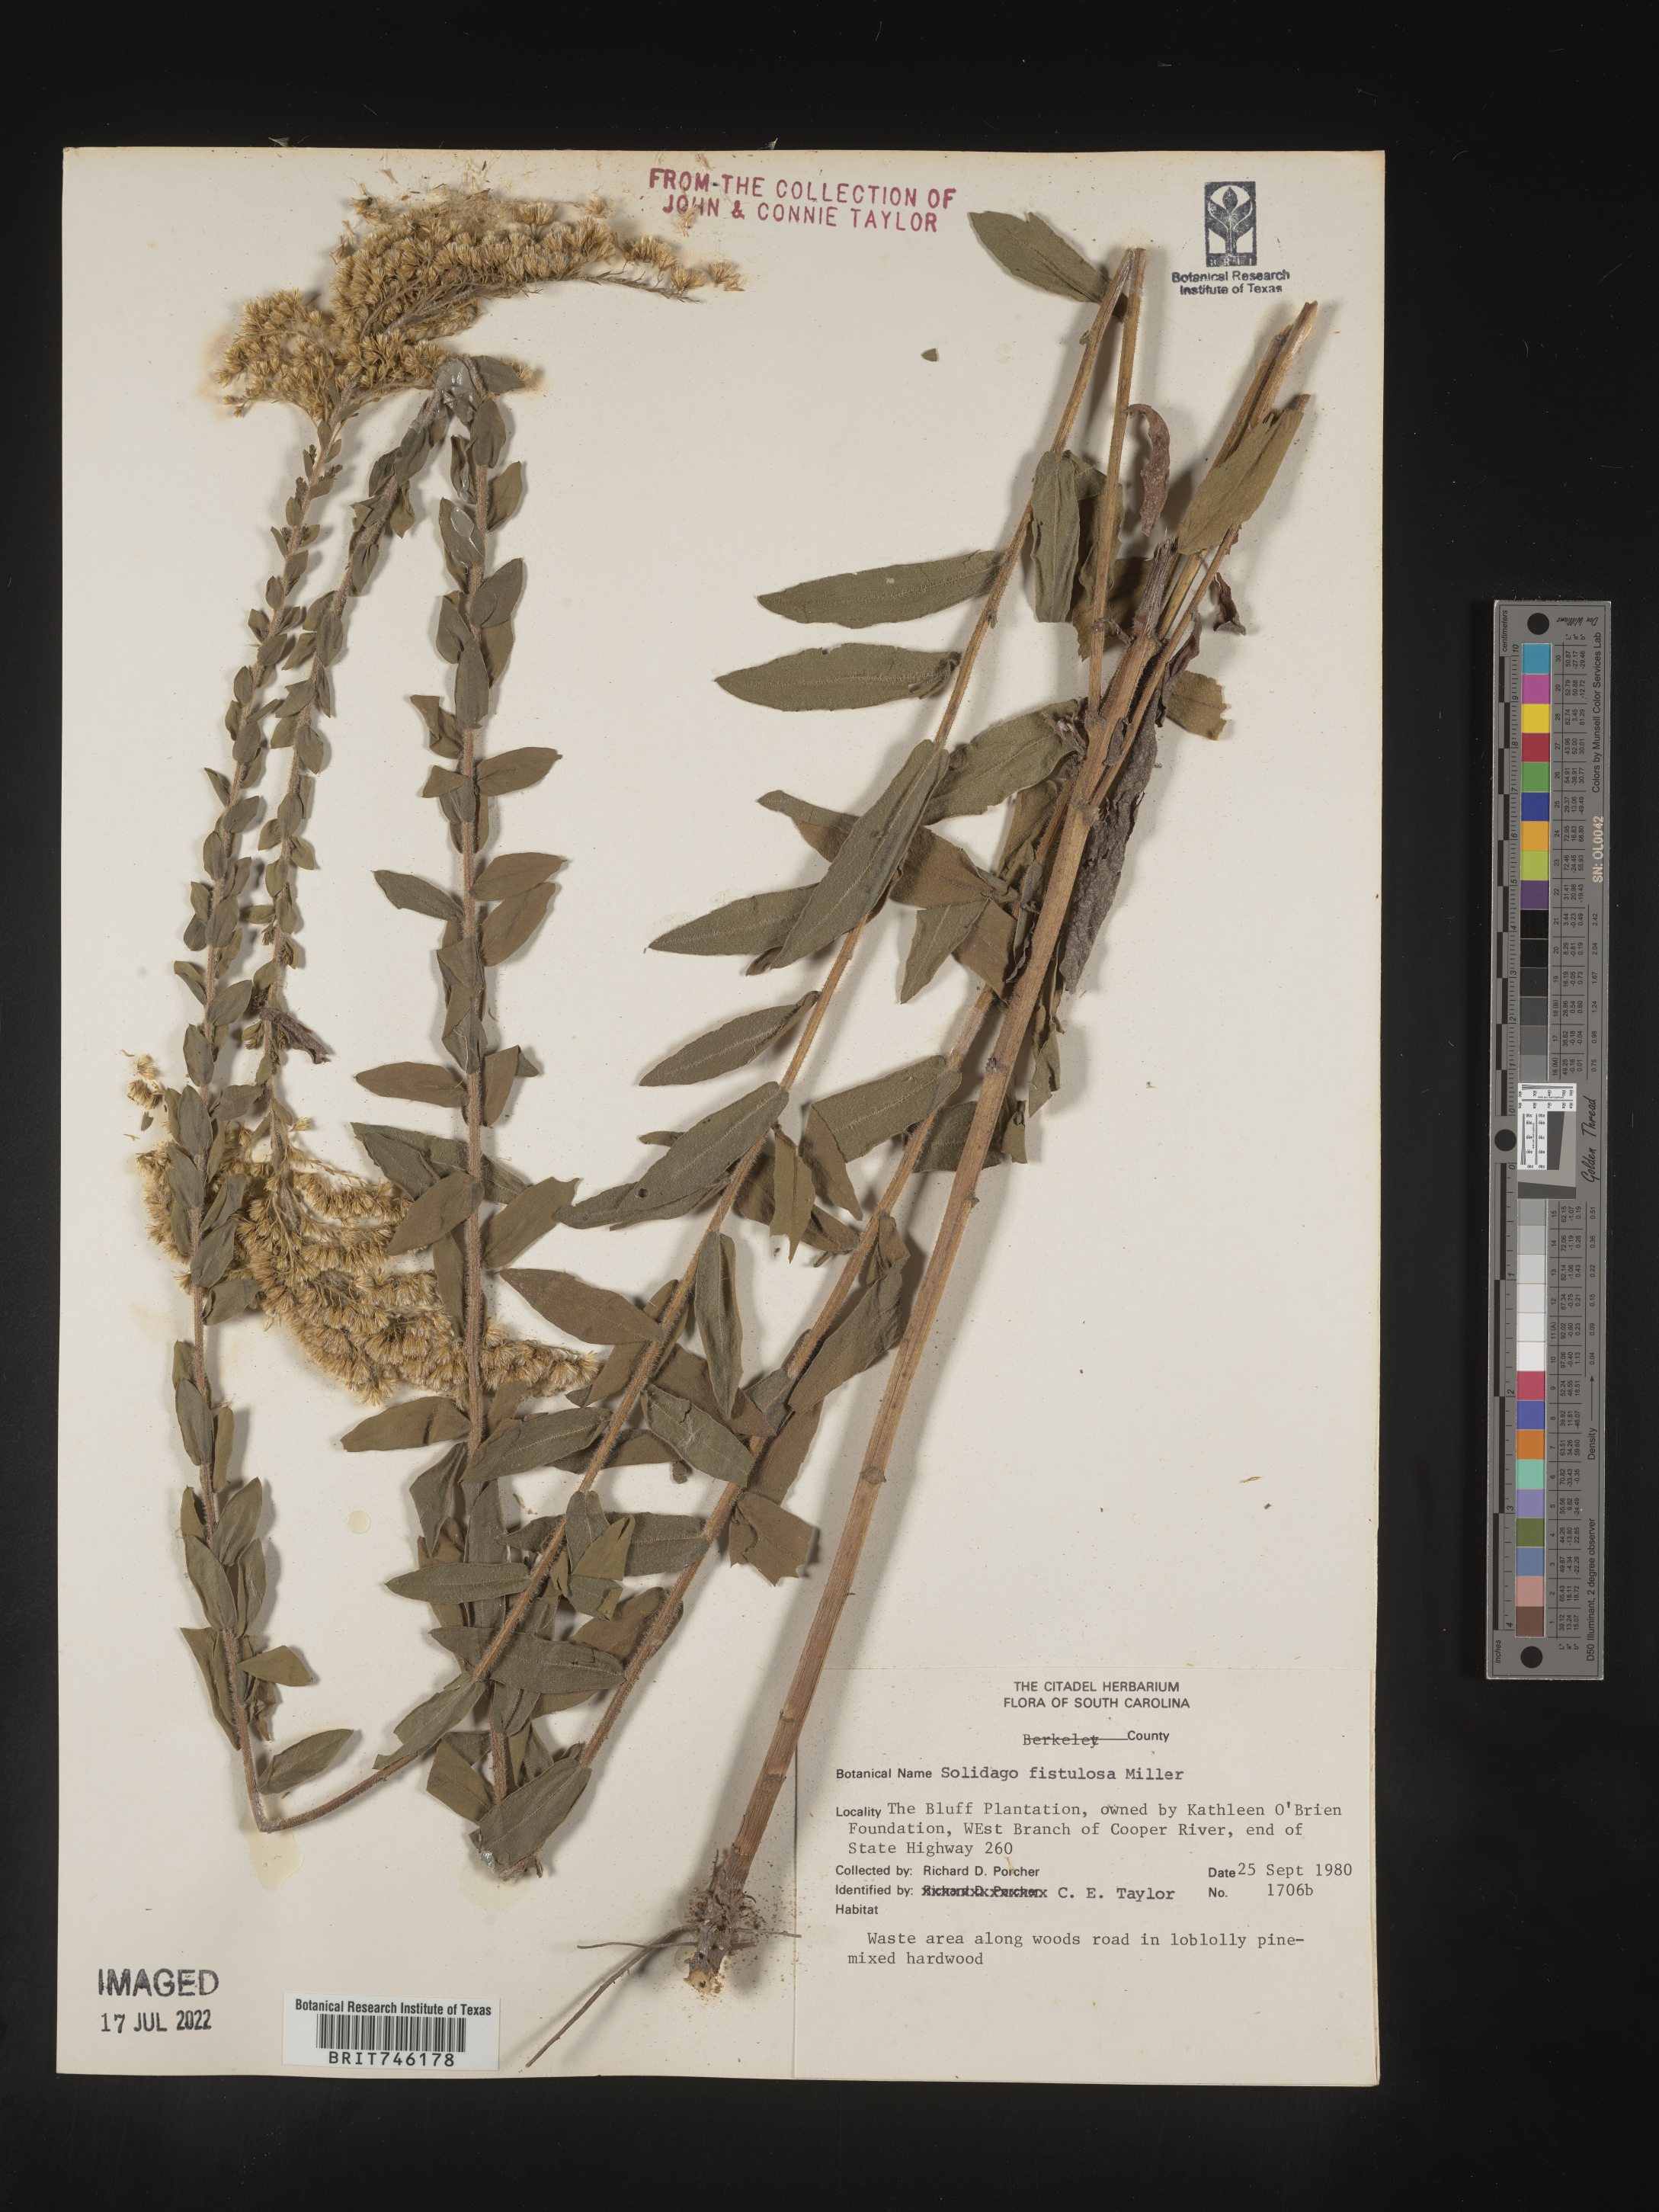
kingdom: Plantae
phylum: Tracheophyta
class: Magnoliopsida
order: Asterales
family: Asteraceae
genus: Solidago
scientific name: Solidago fistulosa
